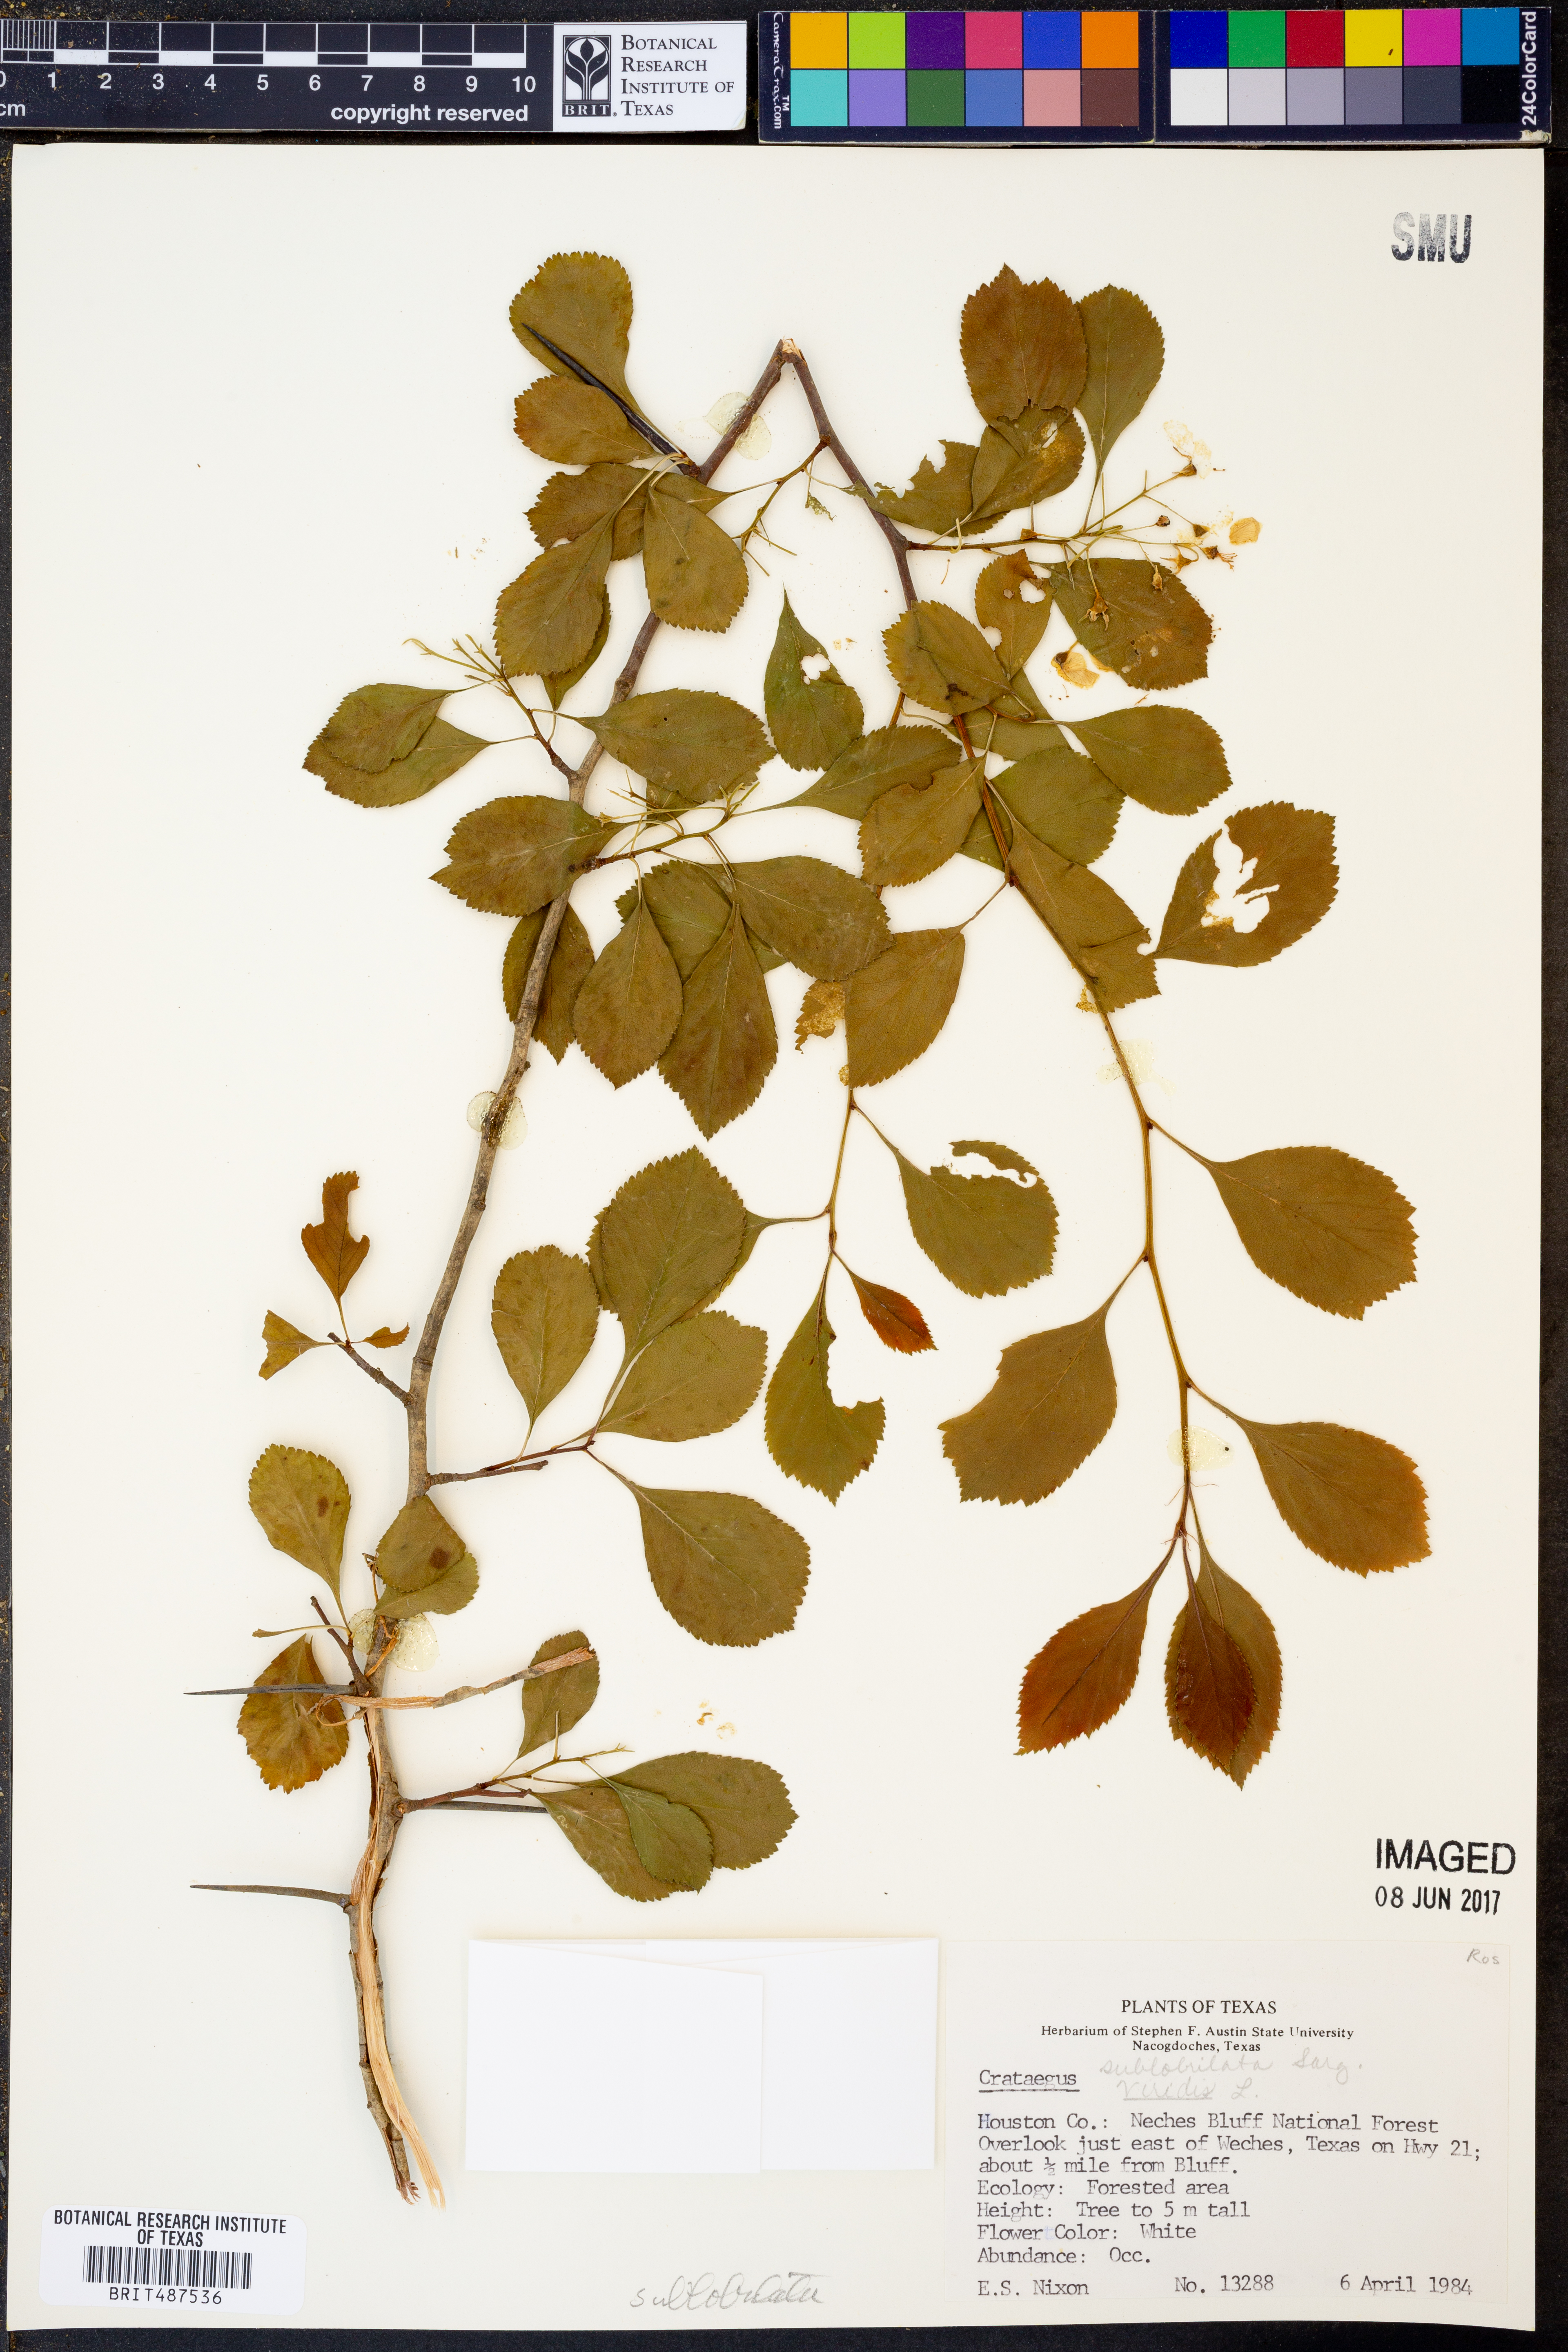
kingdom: Plantae
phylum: Tracheophyta
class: Magnoliopsida
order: Rosales
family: Rosaceae
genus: Crataegus
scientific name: Crataegus
